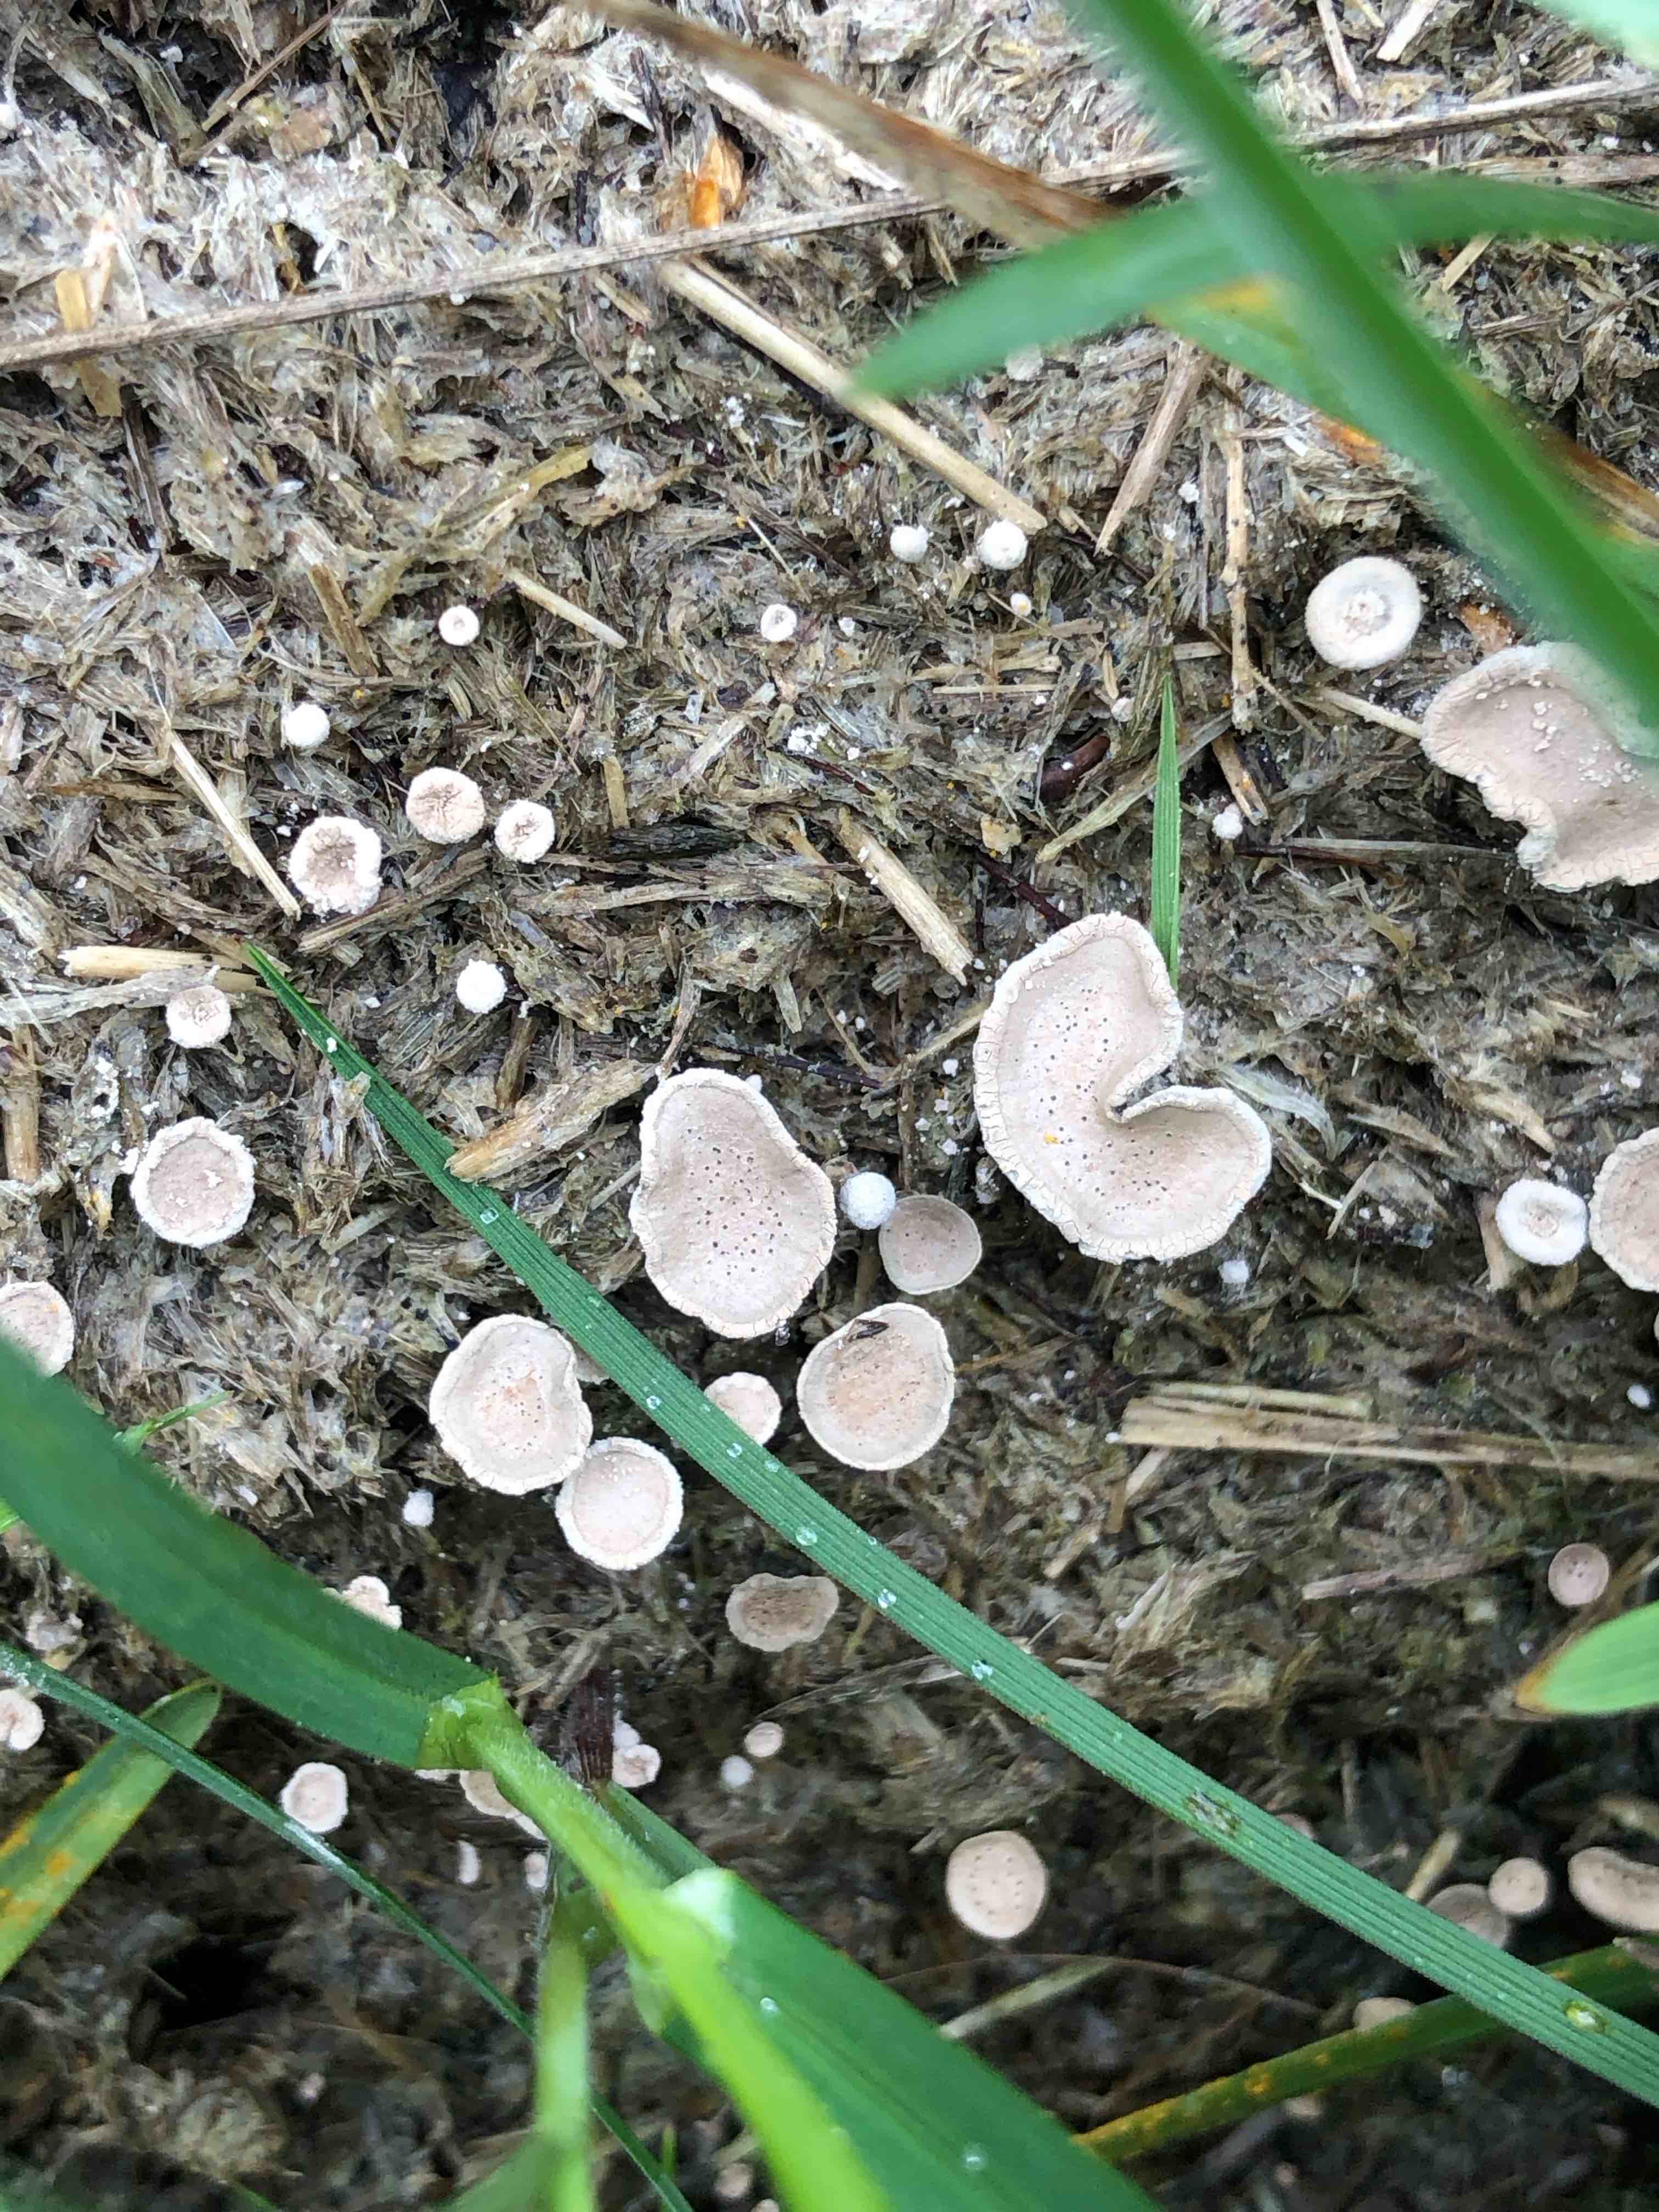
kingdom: Fungi
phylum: Ascomycota
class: Sordariomycetes
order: Xylariales
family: Xylariaceae
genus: Poronia
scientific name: Poronia punctata
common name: stor priksvamp
